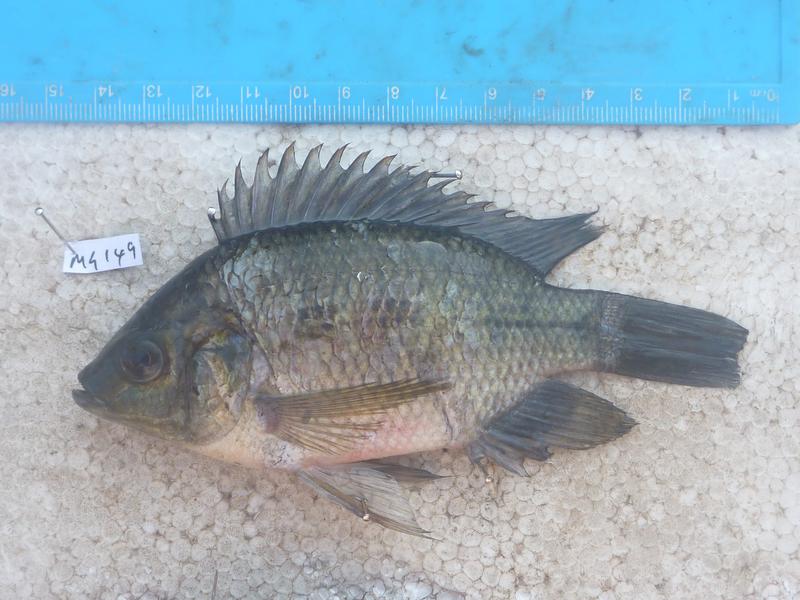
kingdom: Animalia
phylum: Chordata
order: Perciformes
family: Cichlidae
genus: Oreochromis
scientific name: Oreochromis upembae
